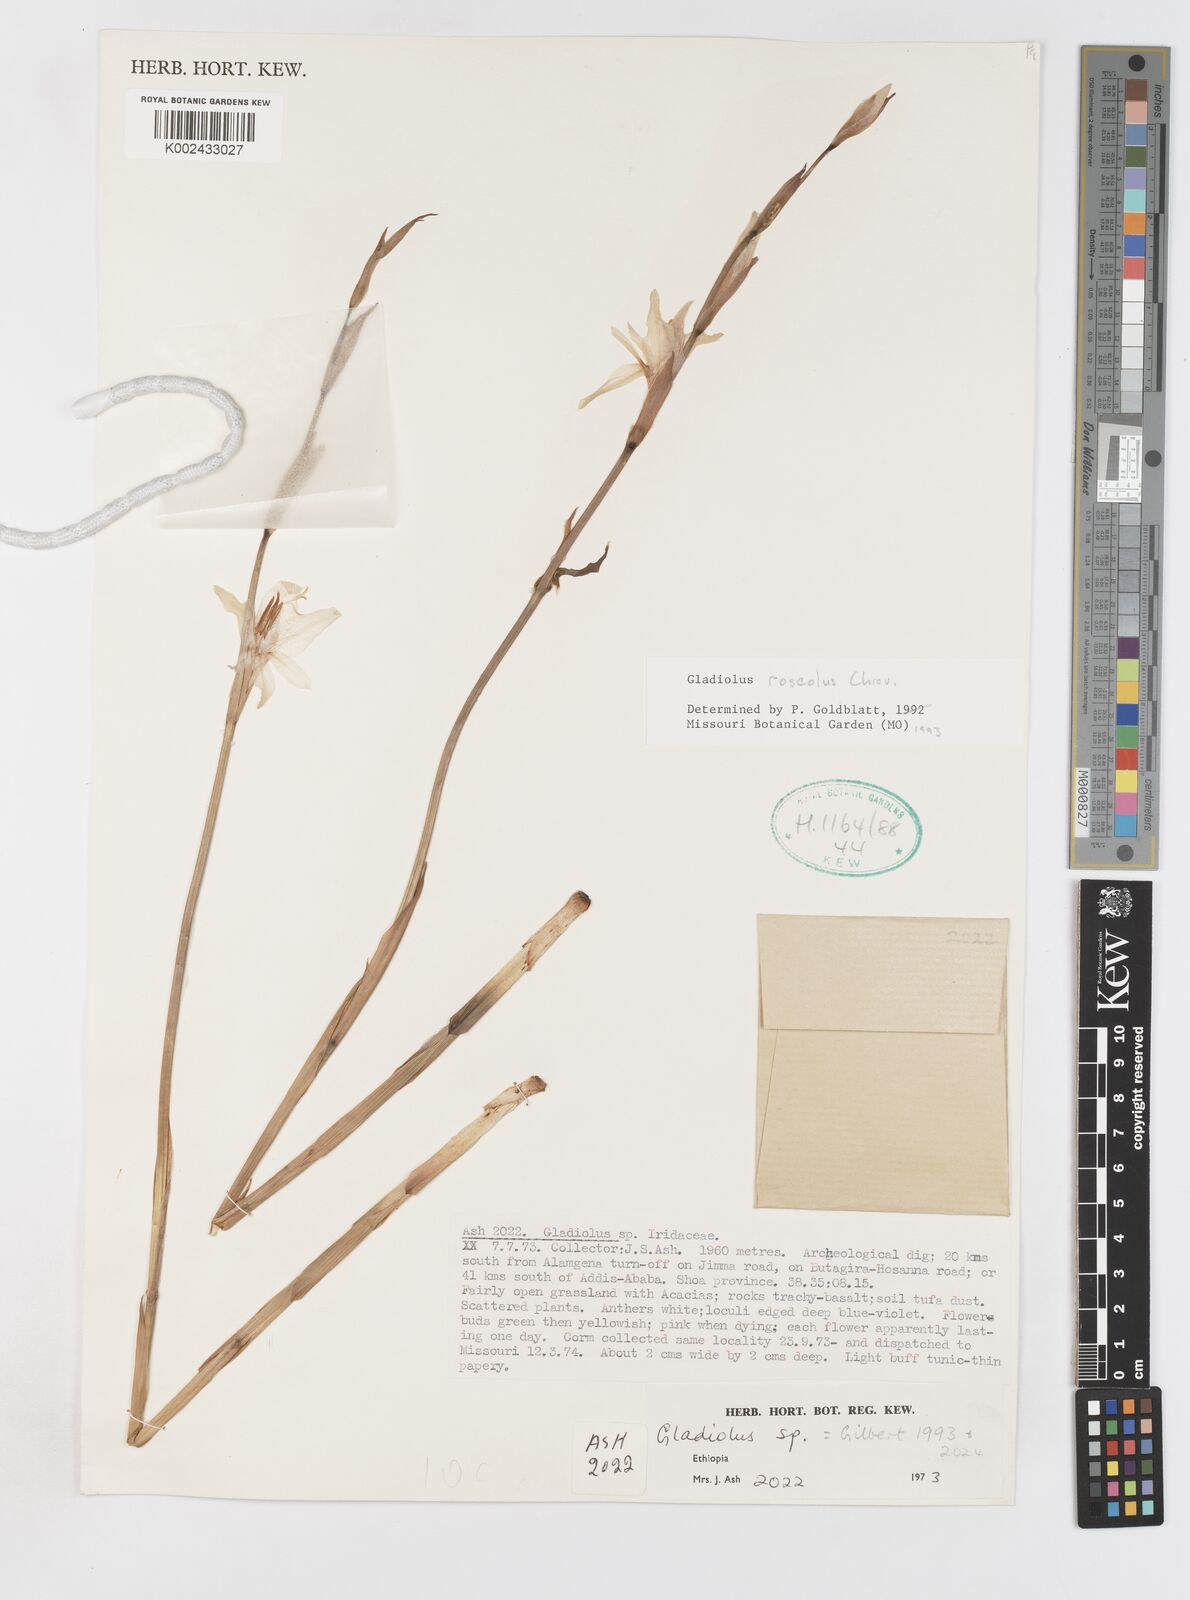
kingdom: Plantae
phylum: Tracheophyta
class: Liliopsida
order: Asparagales
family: Iridaceae
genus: Gladiolus
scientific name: Gladiolus roseolus
